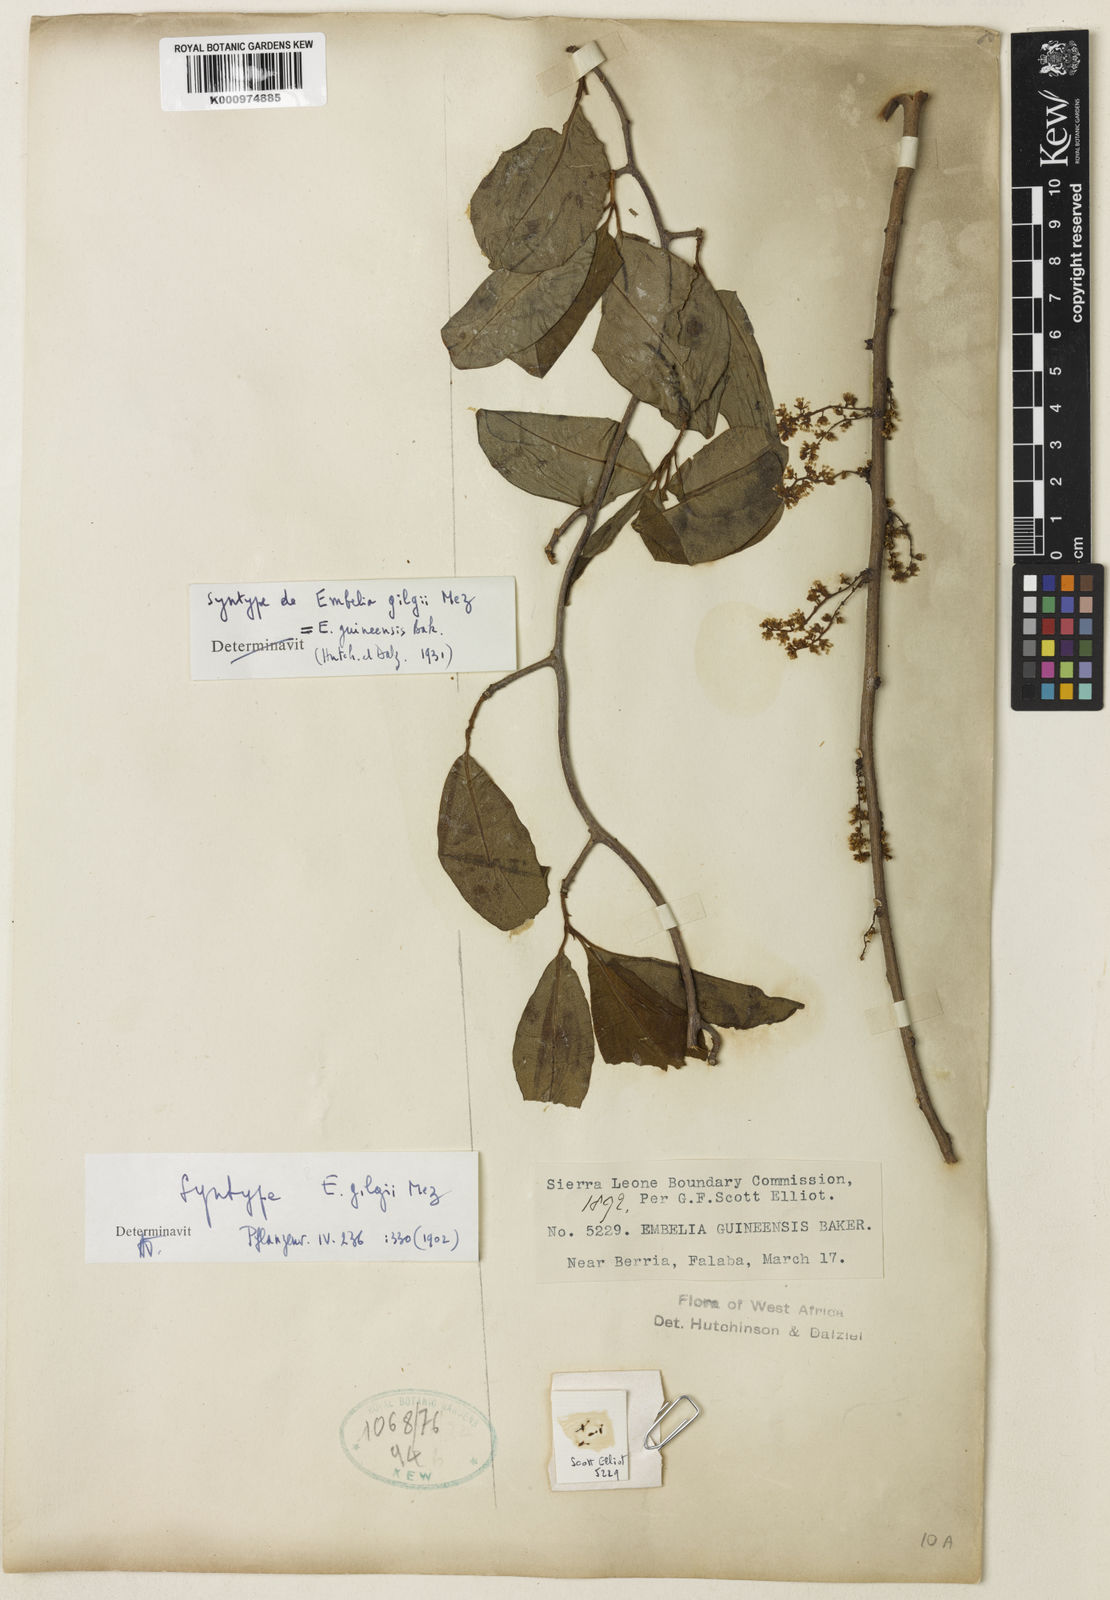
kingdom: Plantae
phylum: Tracheophyta
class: Magnoliopsida
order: Ericales
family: Primulaceae
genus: Embelia
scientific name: Embelia schimperi
